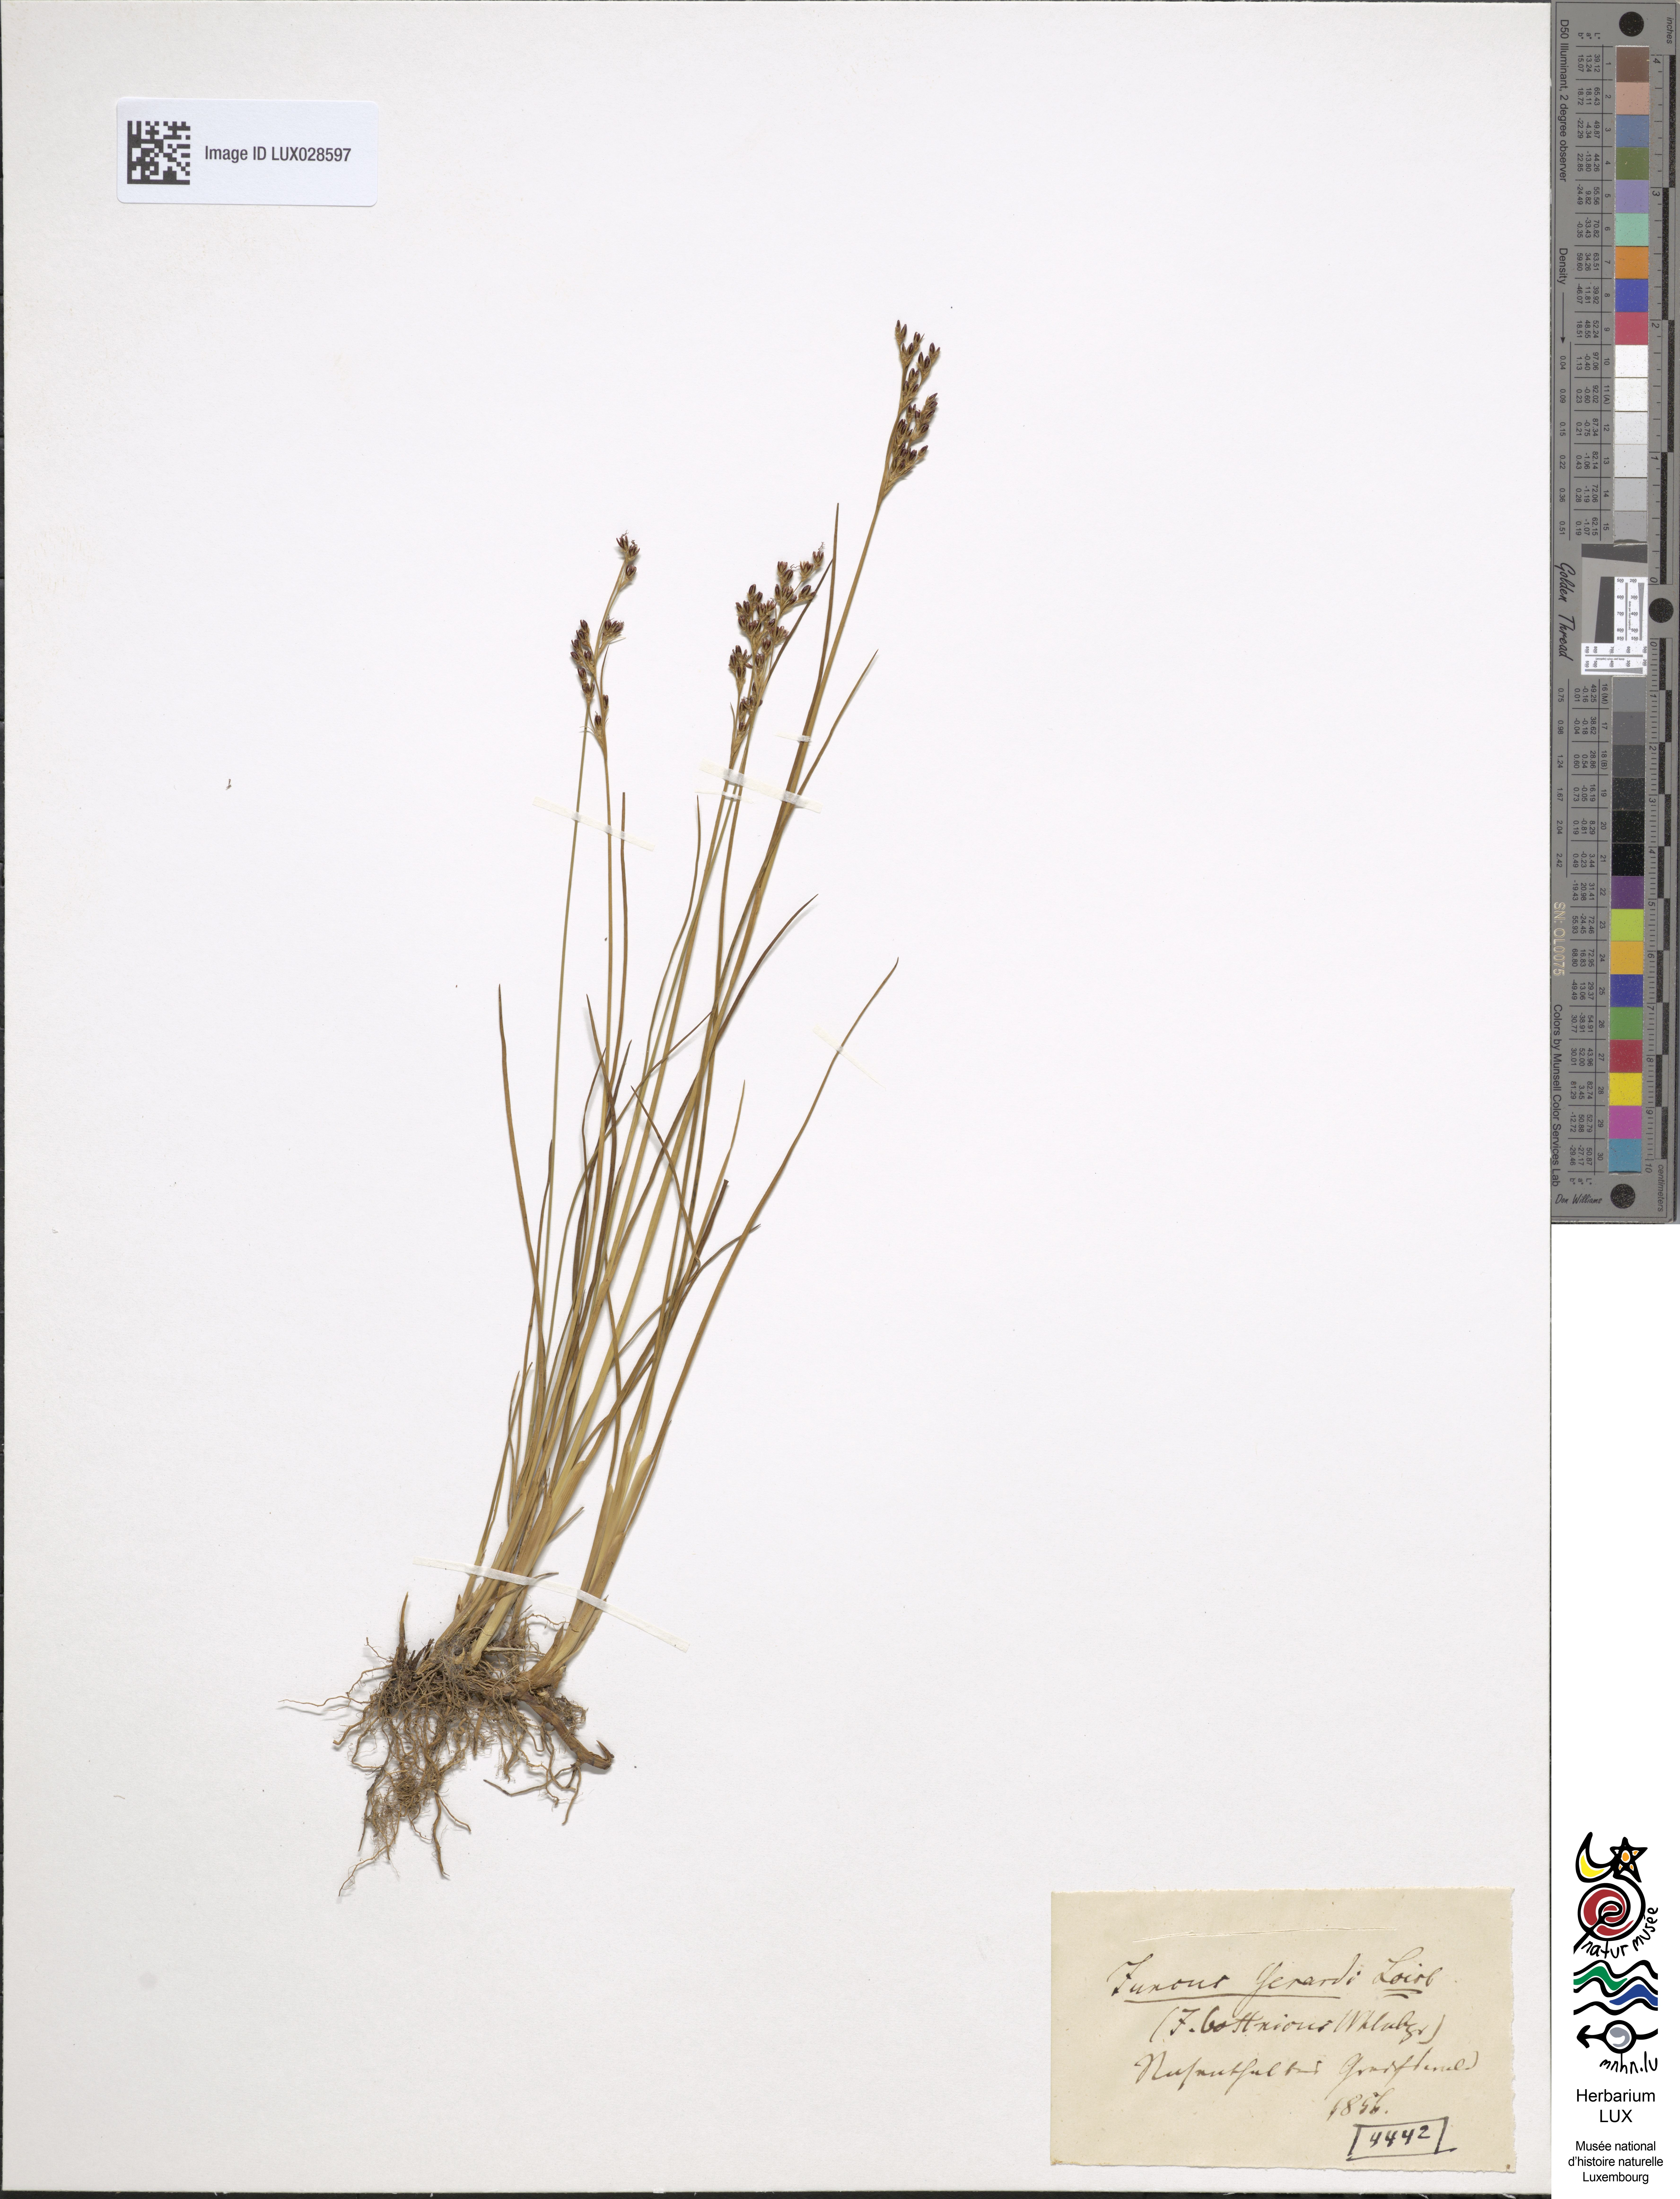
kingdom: Plantae
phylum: Tracheophyta
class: Liliopsida
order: Poales
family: Juncaceae
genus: Juncus
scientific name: Juncus gerardi
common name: Saltmarsh rush
